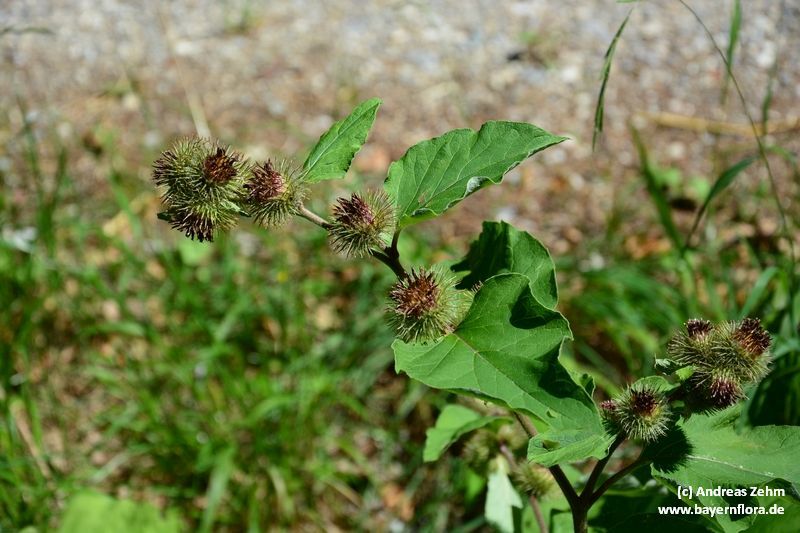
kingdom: Plantae
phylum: Tracheophyta
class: Magnoliopsida
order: Asterales
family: Asteraceae
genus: Arctium
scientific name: Arctium nemorosum
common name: Wood burdock
